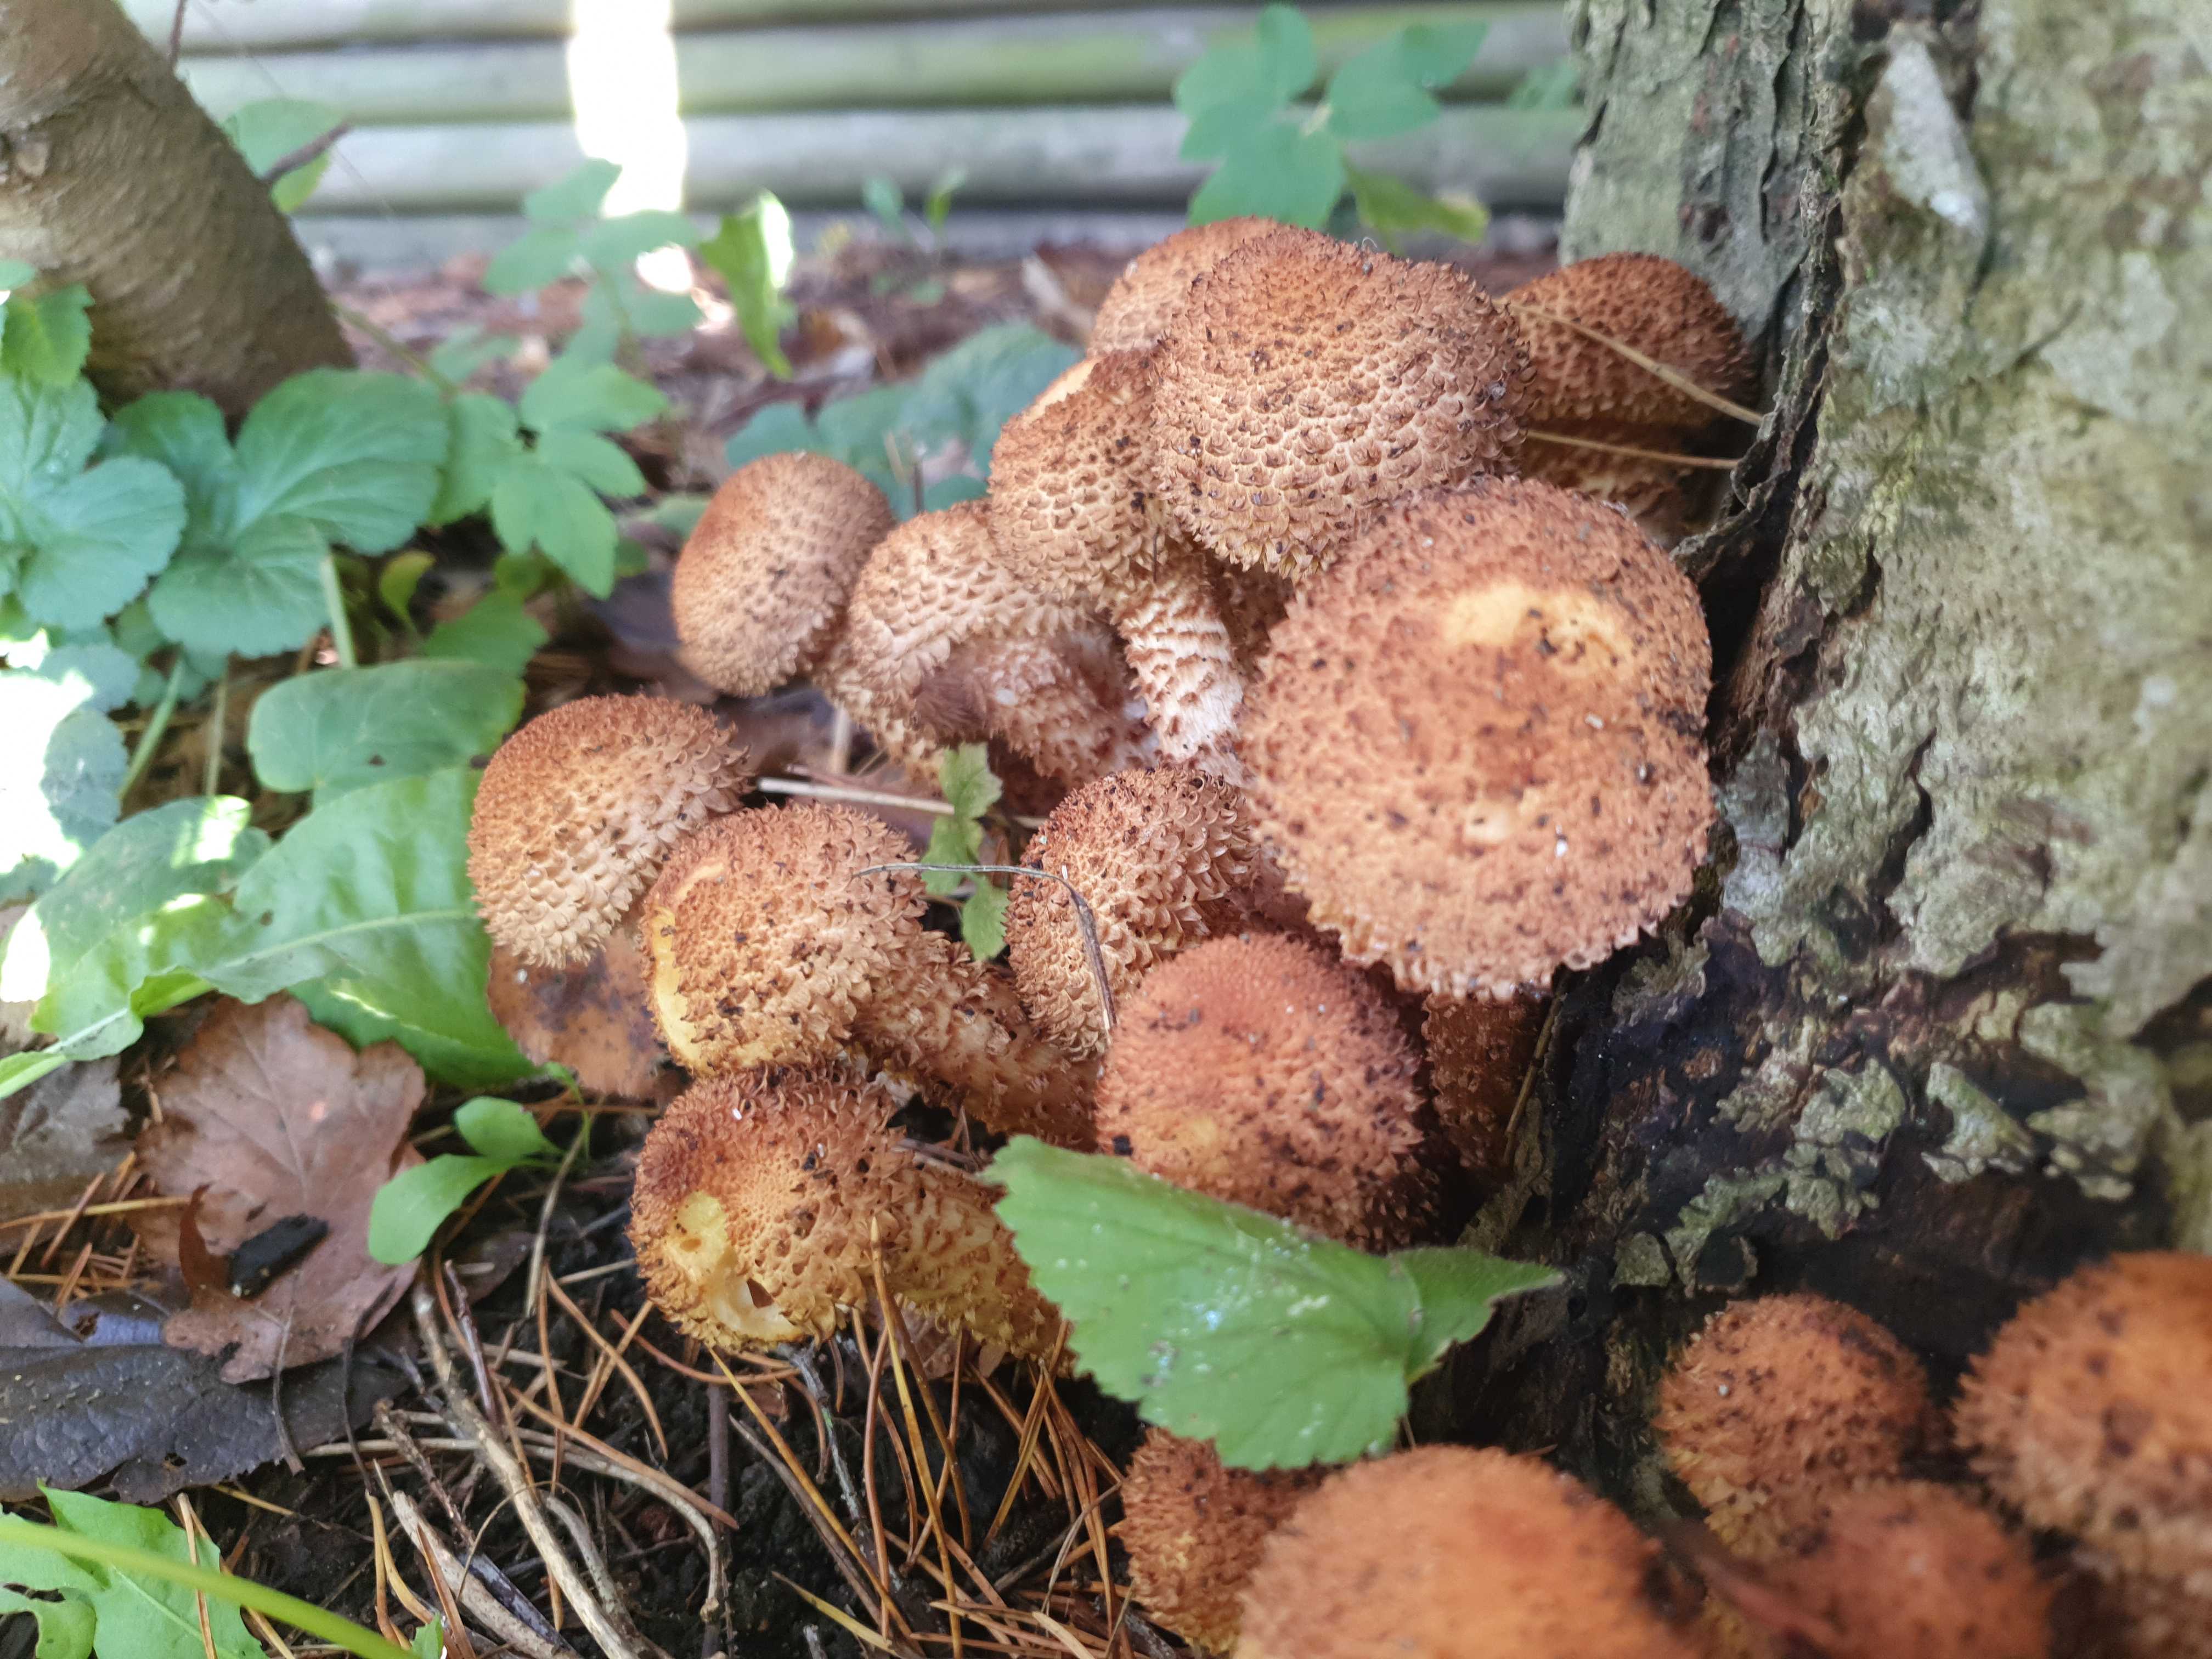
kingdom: Fungi
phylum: Basidiomycota
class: Agaricomycetes
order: Agaricales
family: Strophariaceae
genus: Pholiota
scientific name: Pholiota squarrosa
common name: krumskællet skælhat
